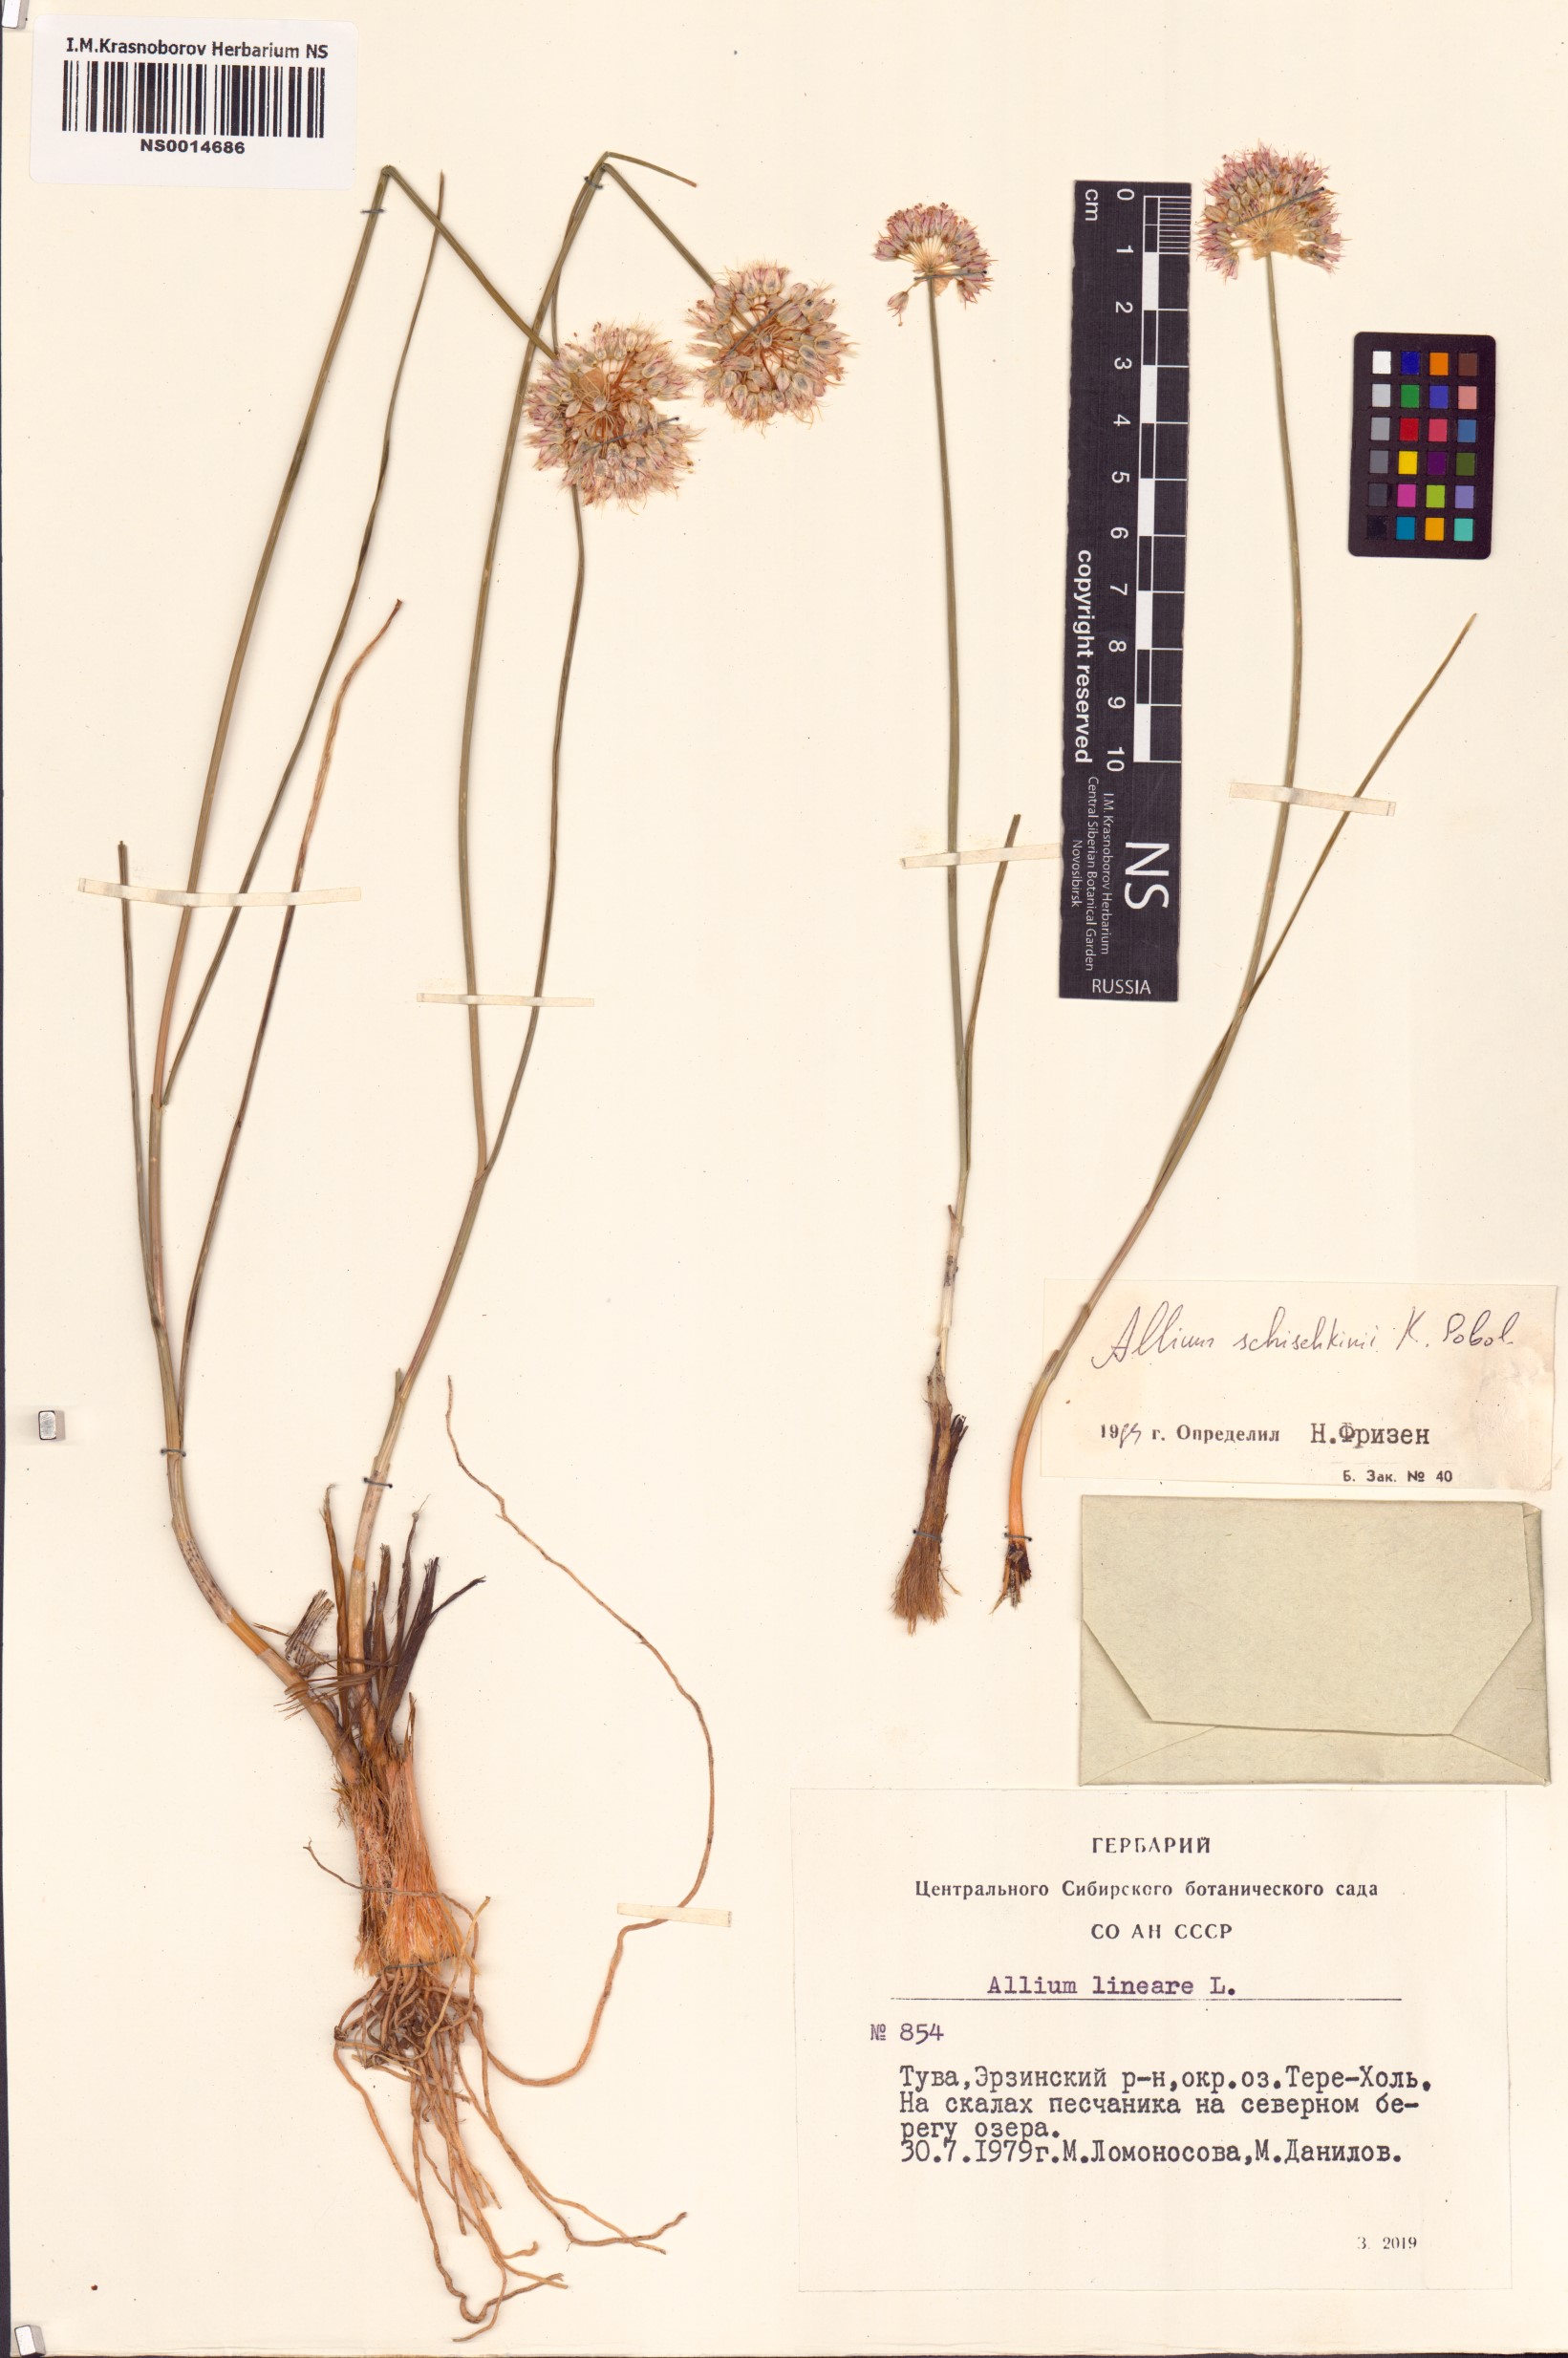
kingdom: Plantae
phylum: Tracheophyta
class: Liliopsida
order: Asparagales
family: Amaryllidaceae
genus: Allium
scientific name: Allium schischkinii
